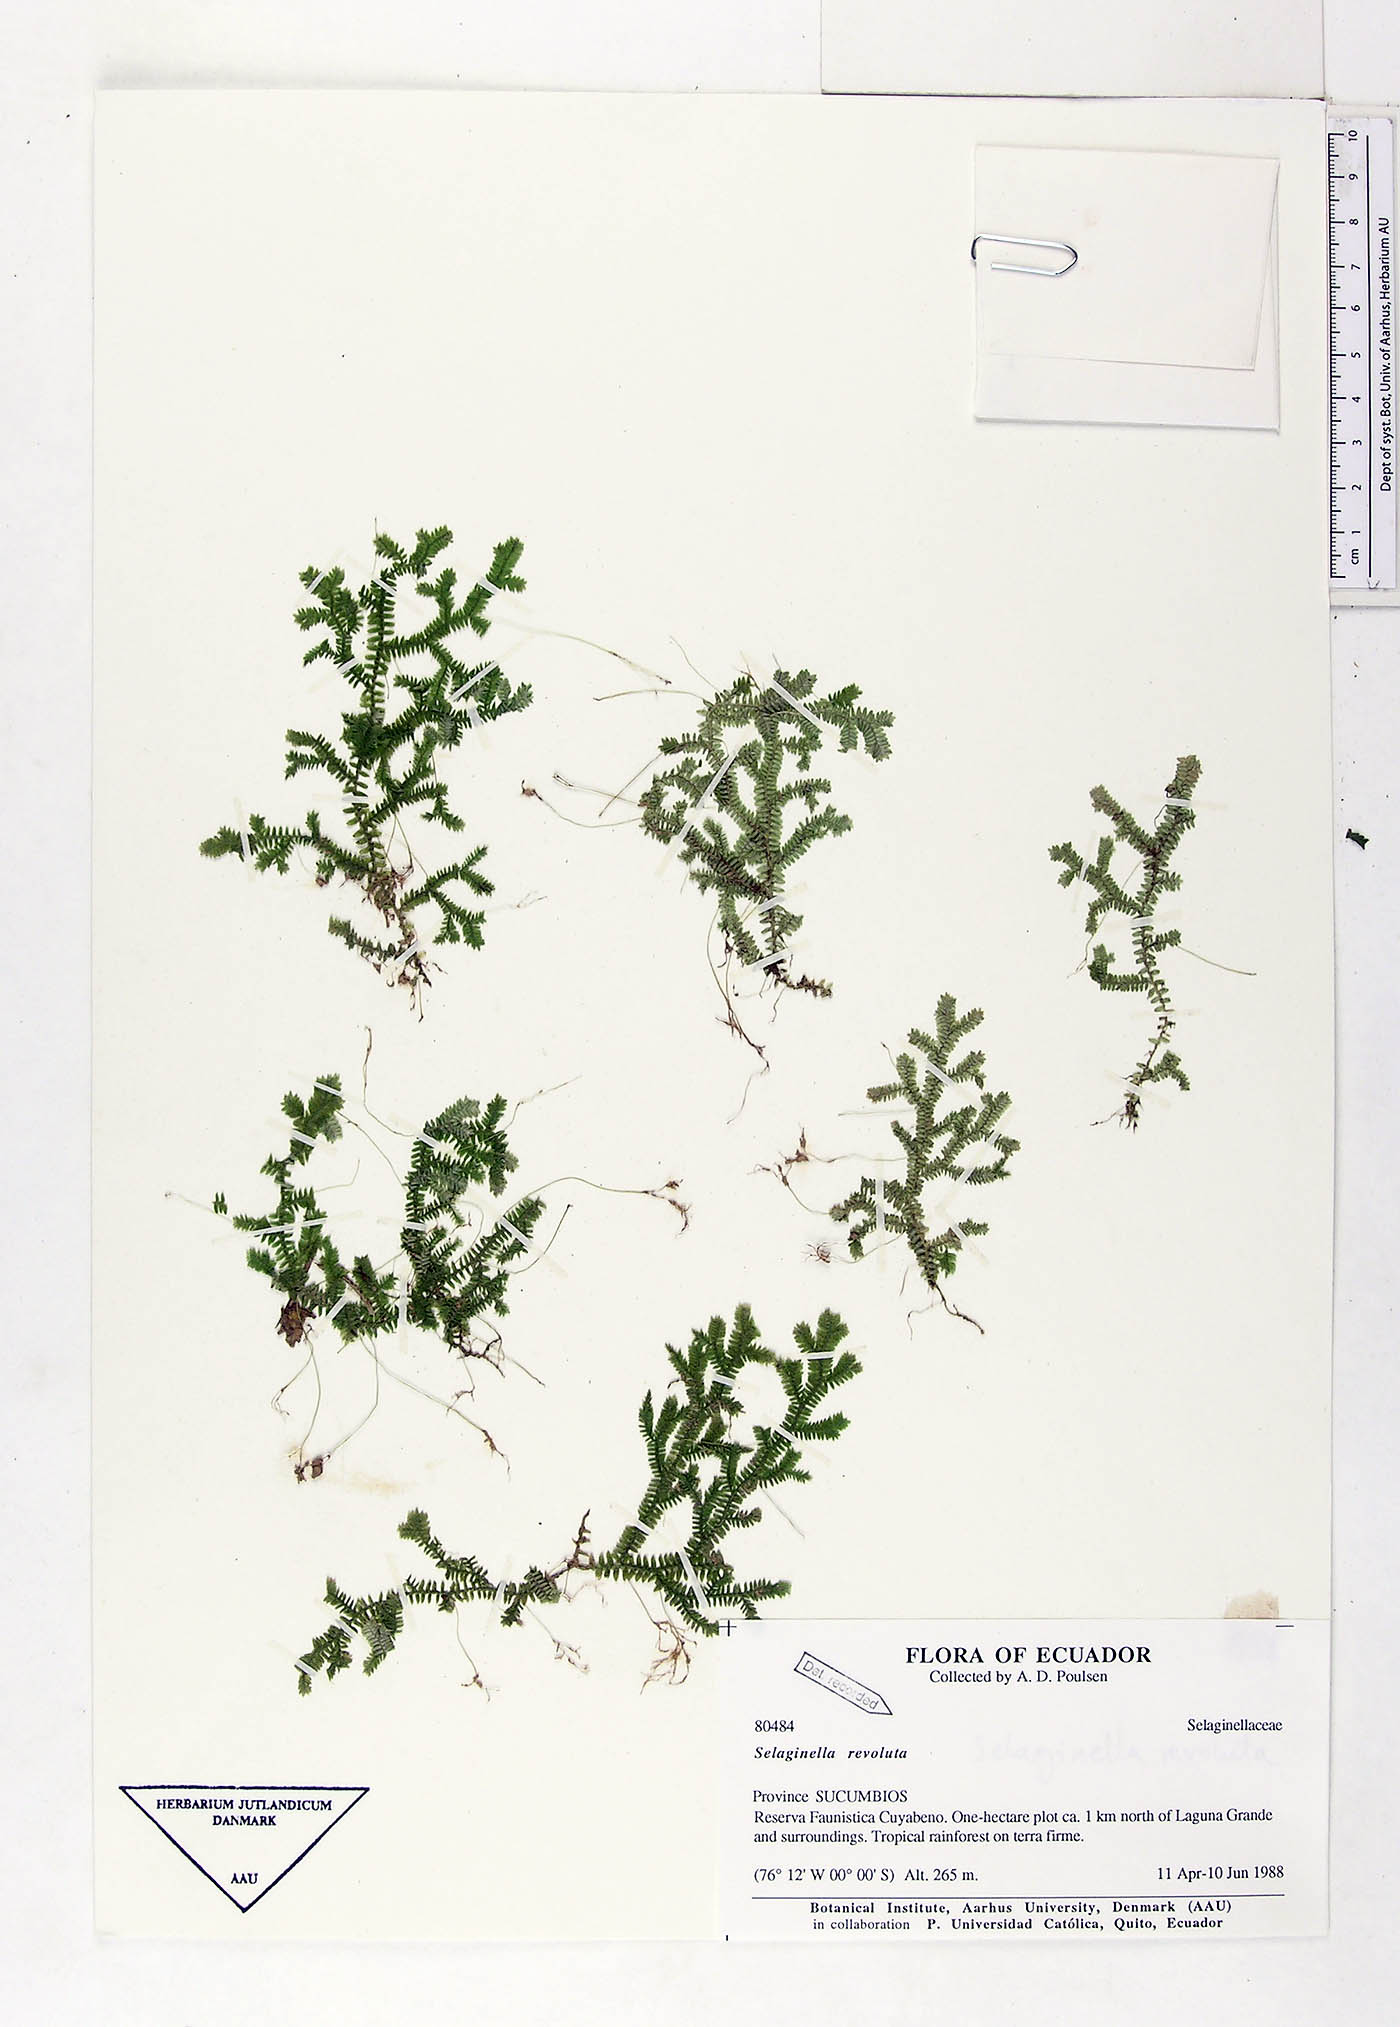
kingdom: Plantae
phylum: Tracheophyta
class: Lycopodiopsida
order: Selaginellales
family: Selaginellaceae
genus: Selaginella
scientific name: Selaginella revoluta
